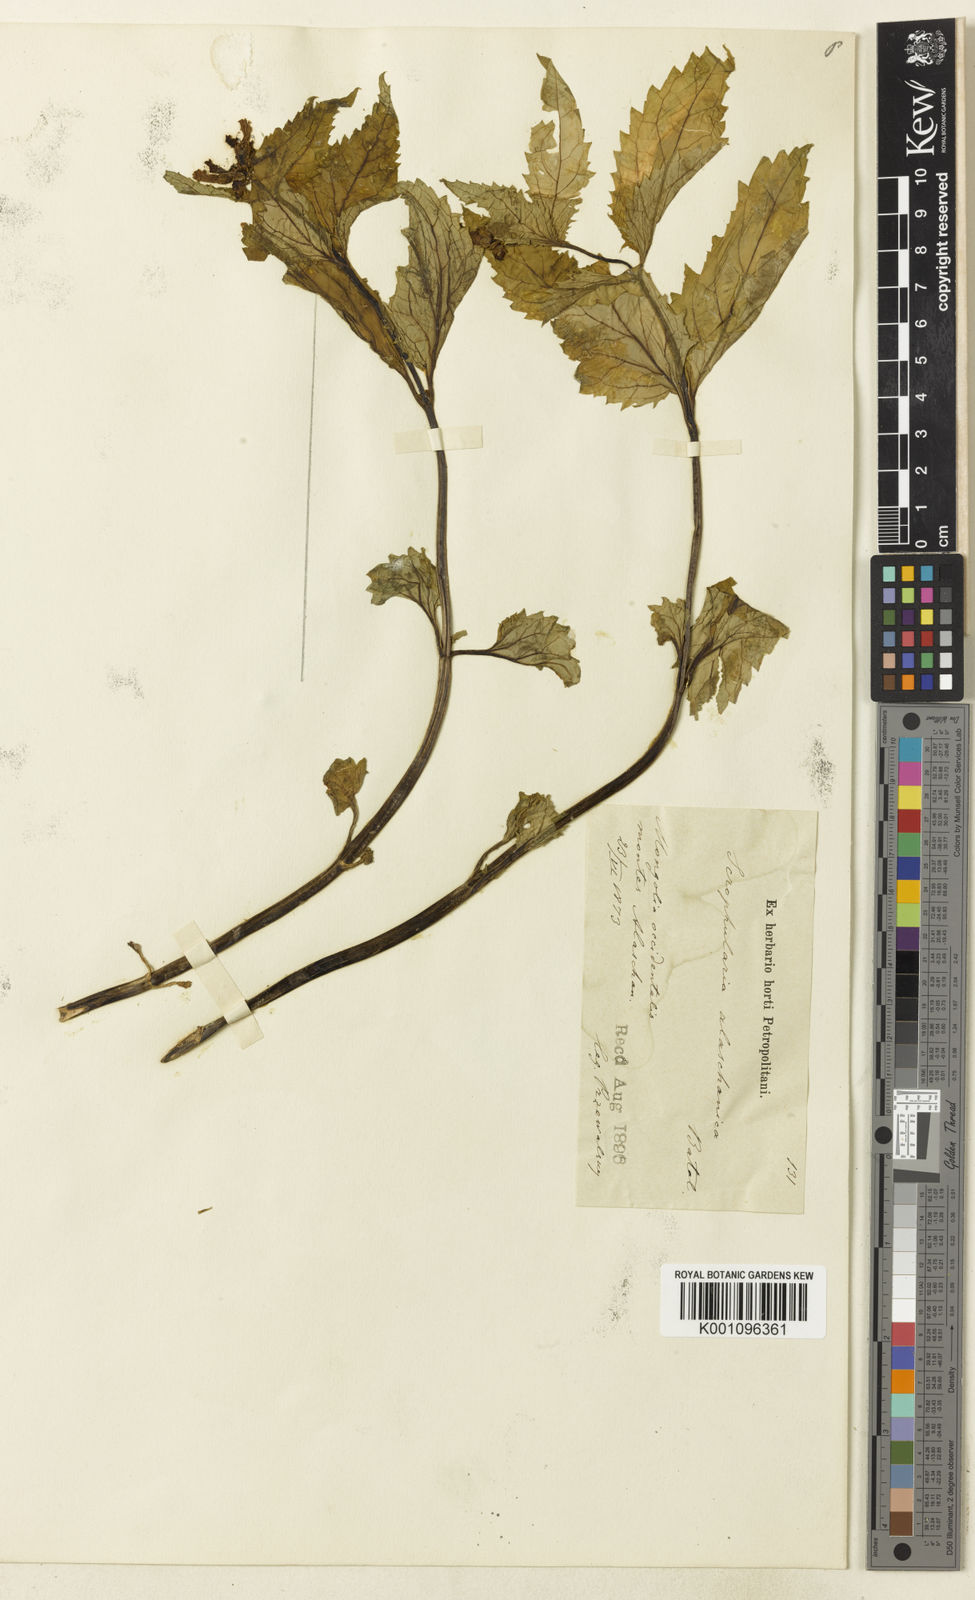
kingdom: Plantae
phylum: Tracheophyta
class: Magnoliopsida
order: Lamiales
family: Scrophulariaceae
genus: Scrophularia
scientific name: Scrophularia alaschanica
